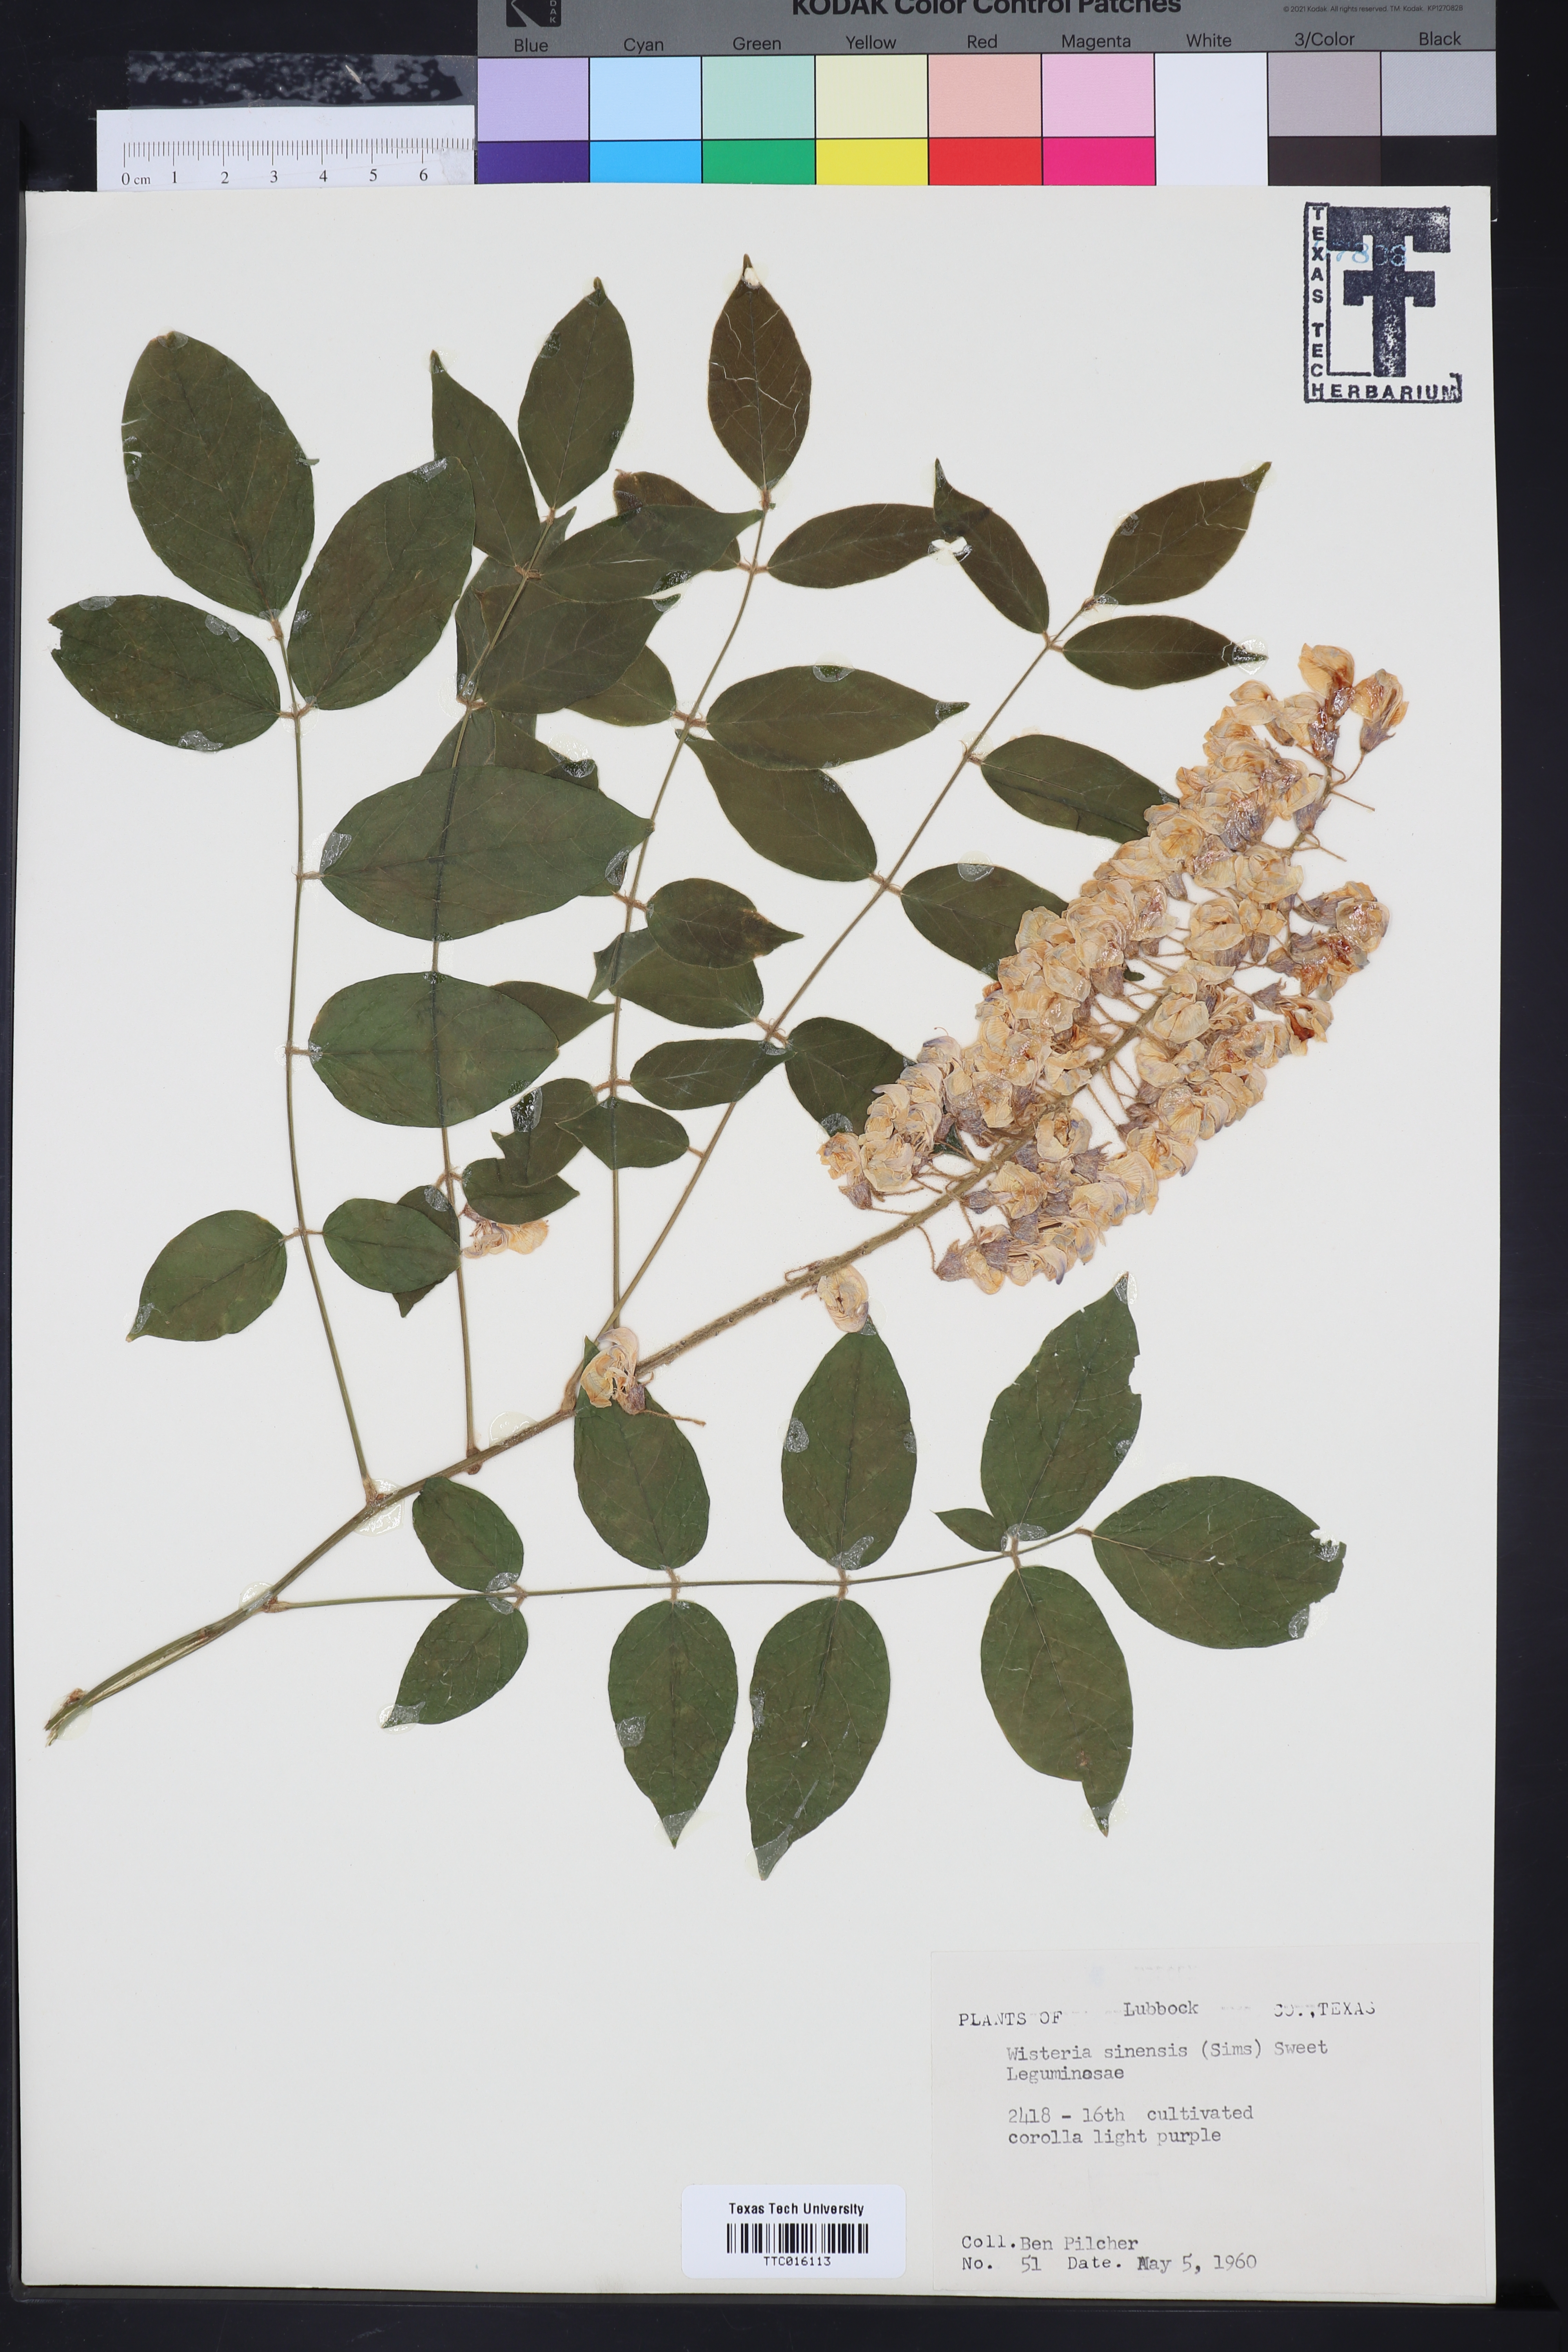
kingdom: Plantae
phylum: Tracheophyta
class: Magnoliopsida
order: Fabales
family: Fabaceae
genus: Wisteria
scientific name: Wisteria sinensis
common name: Chinese wisteria
